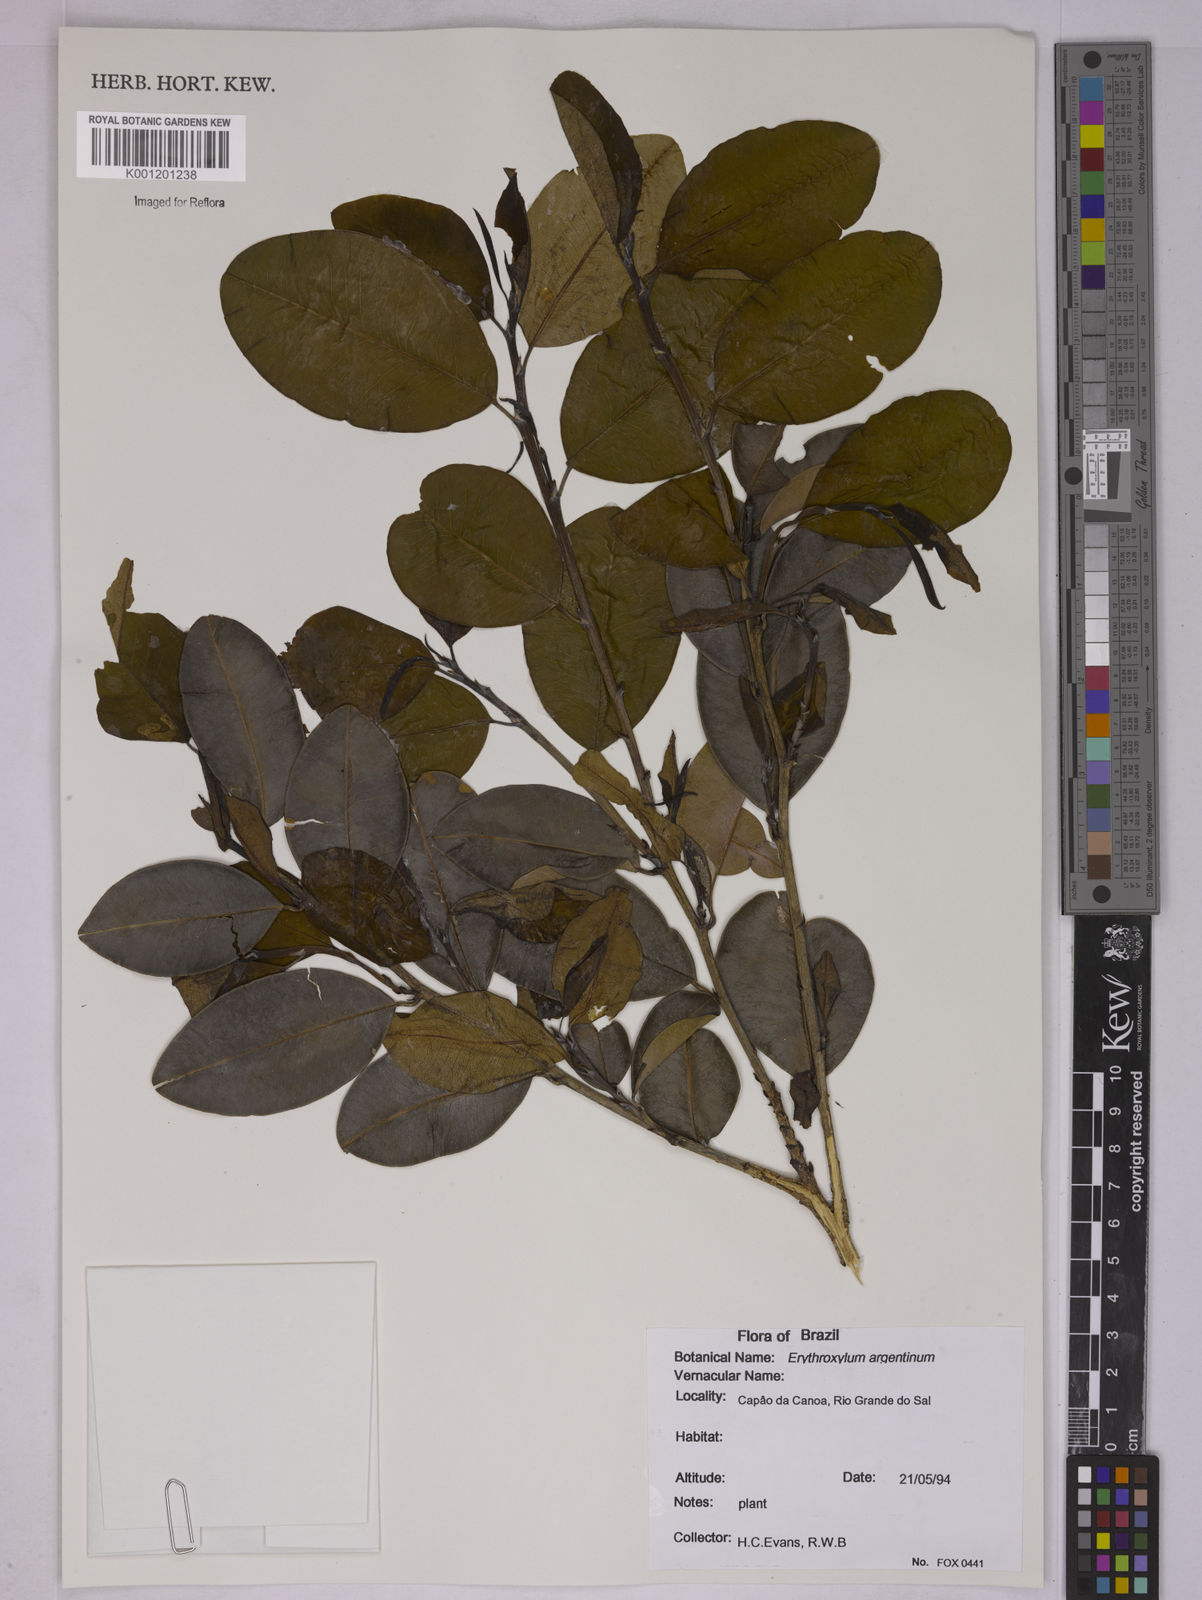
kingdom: Plantae
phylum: Tracheophyta
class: Magnoliopsida
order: Malpighiales
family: Erythroxylaceae
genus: Erythroxylum
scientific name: Erythroxylum argentinum
